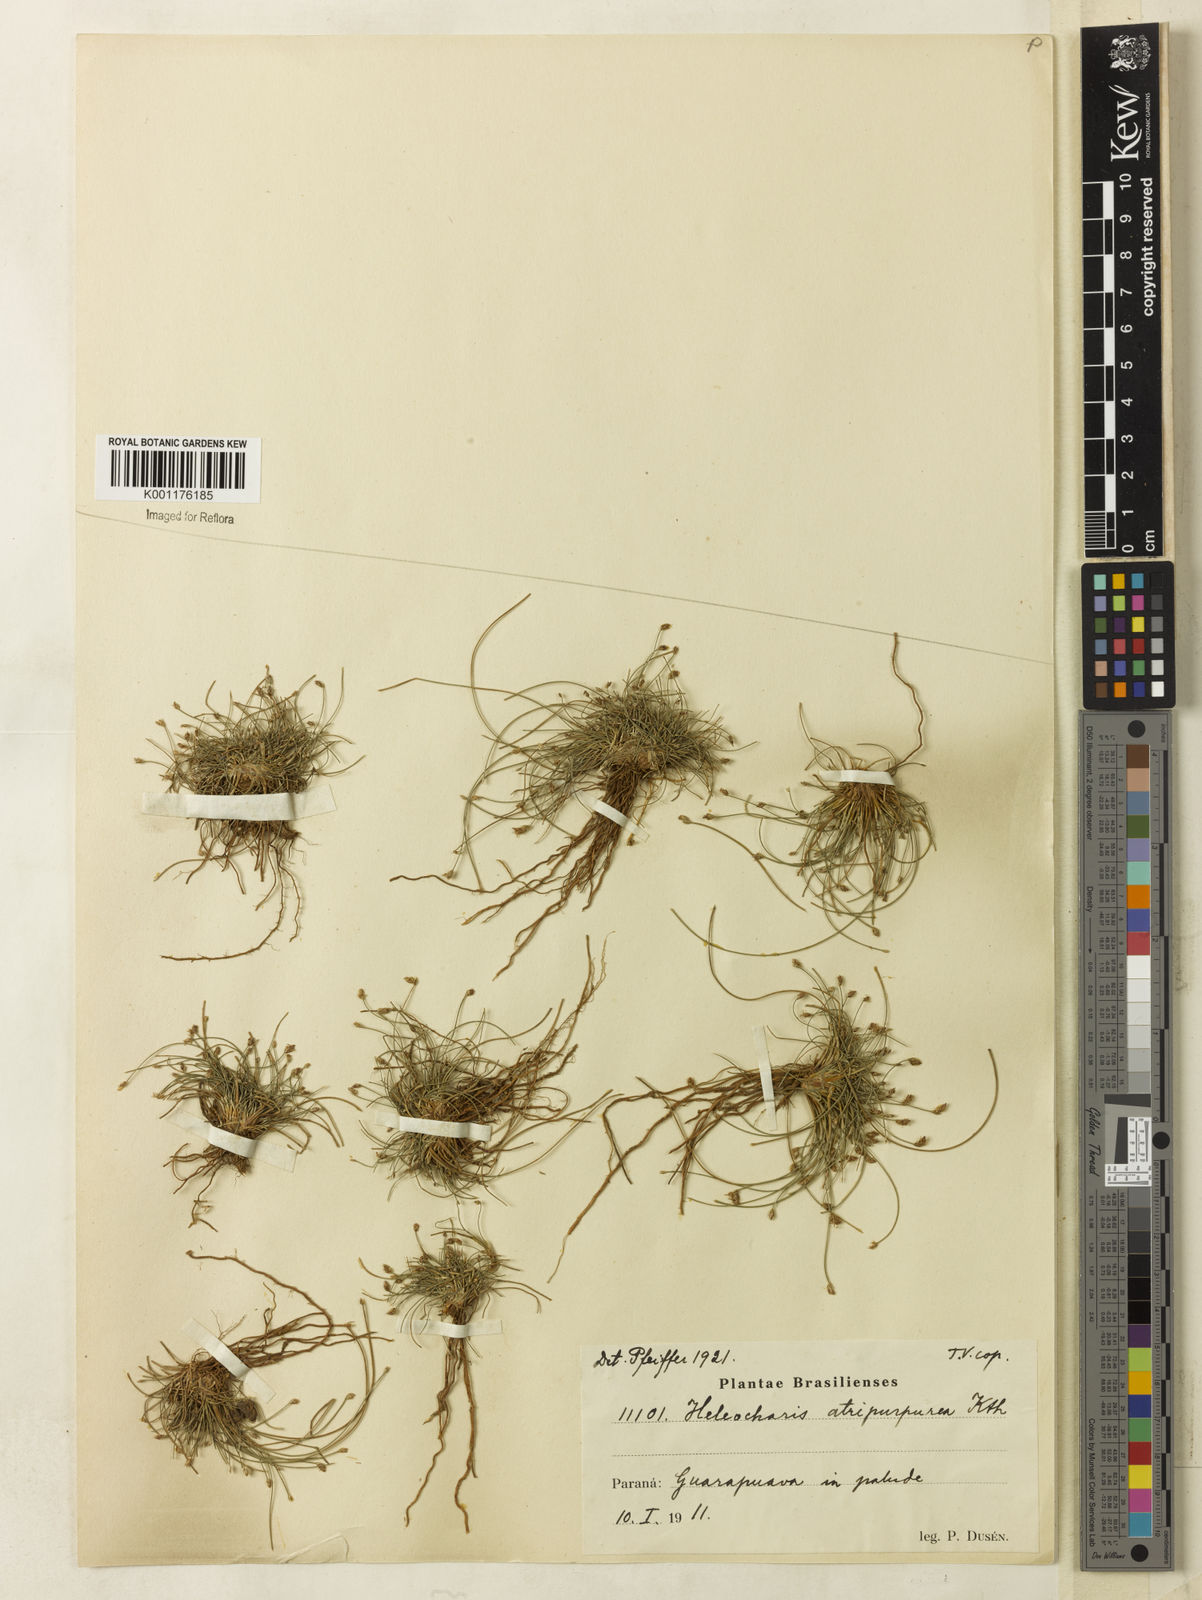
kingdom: Plantae
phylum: Tracheophyta
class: Liliopsida
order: Poales
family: Cyperaceae
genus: Eleocharis
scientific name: Eleocharis atropurpurea
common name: Purple spikerush
